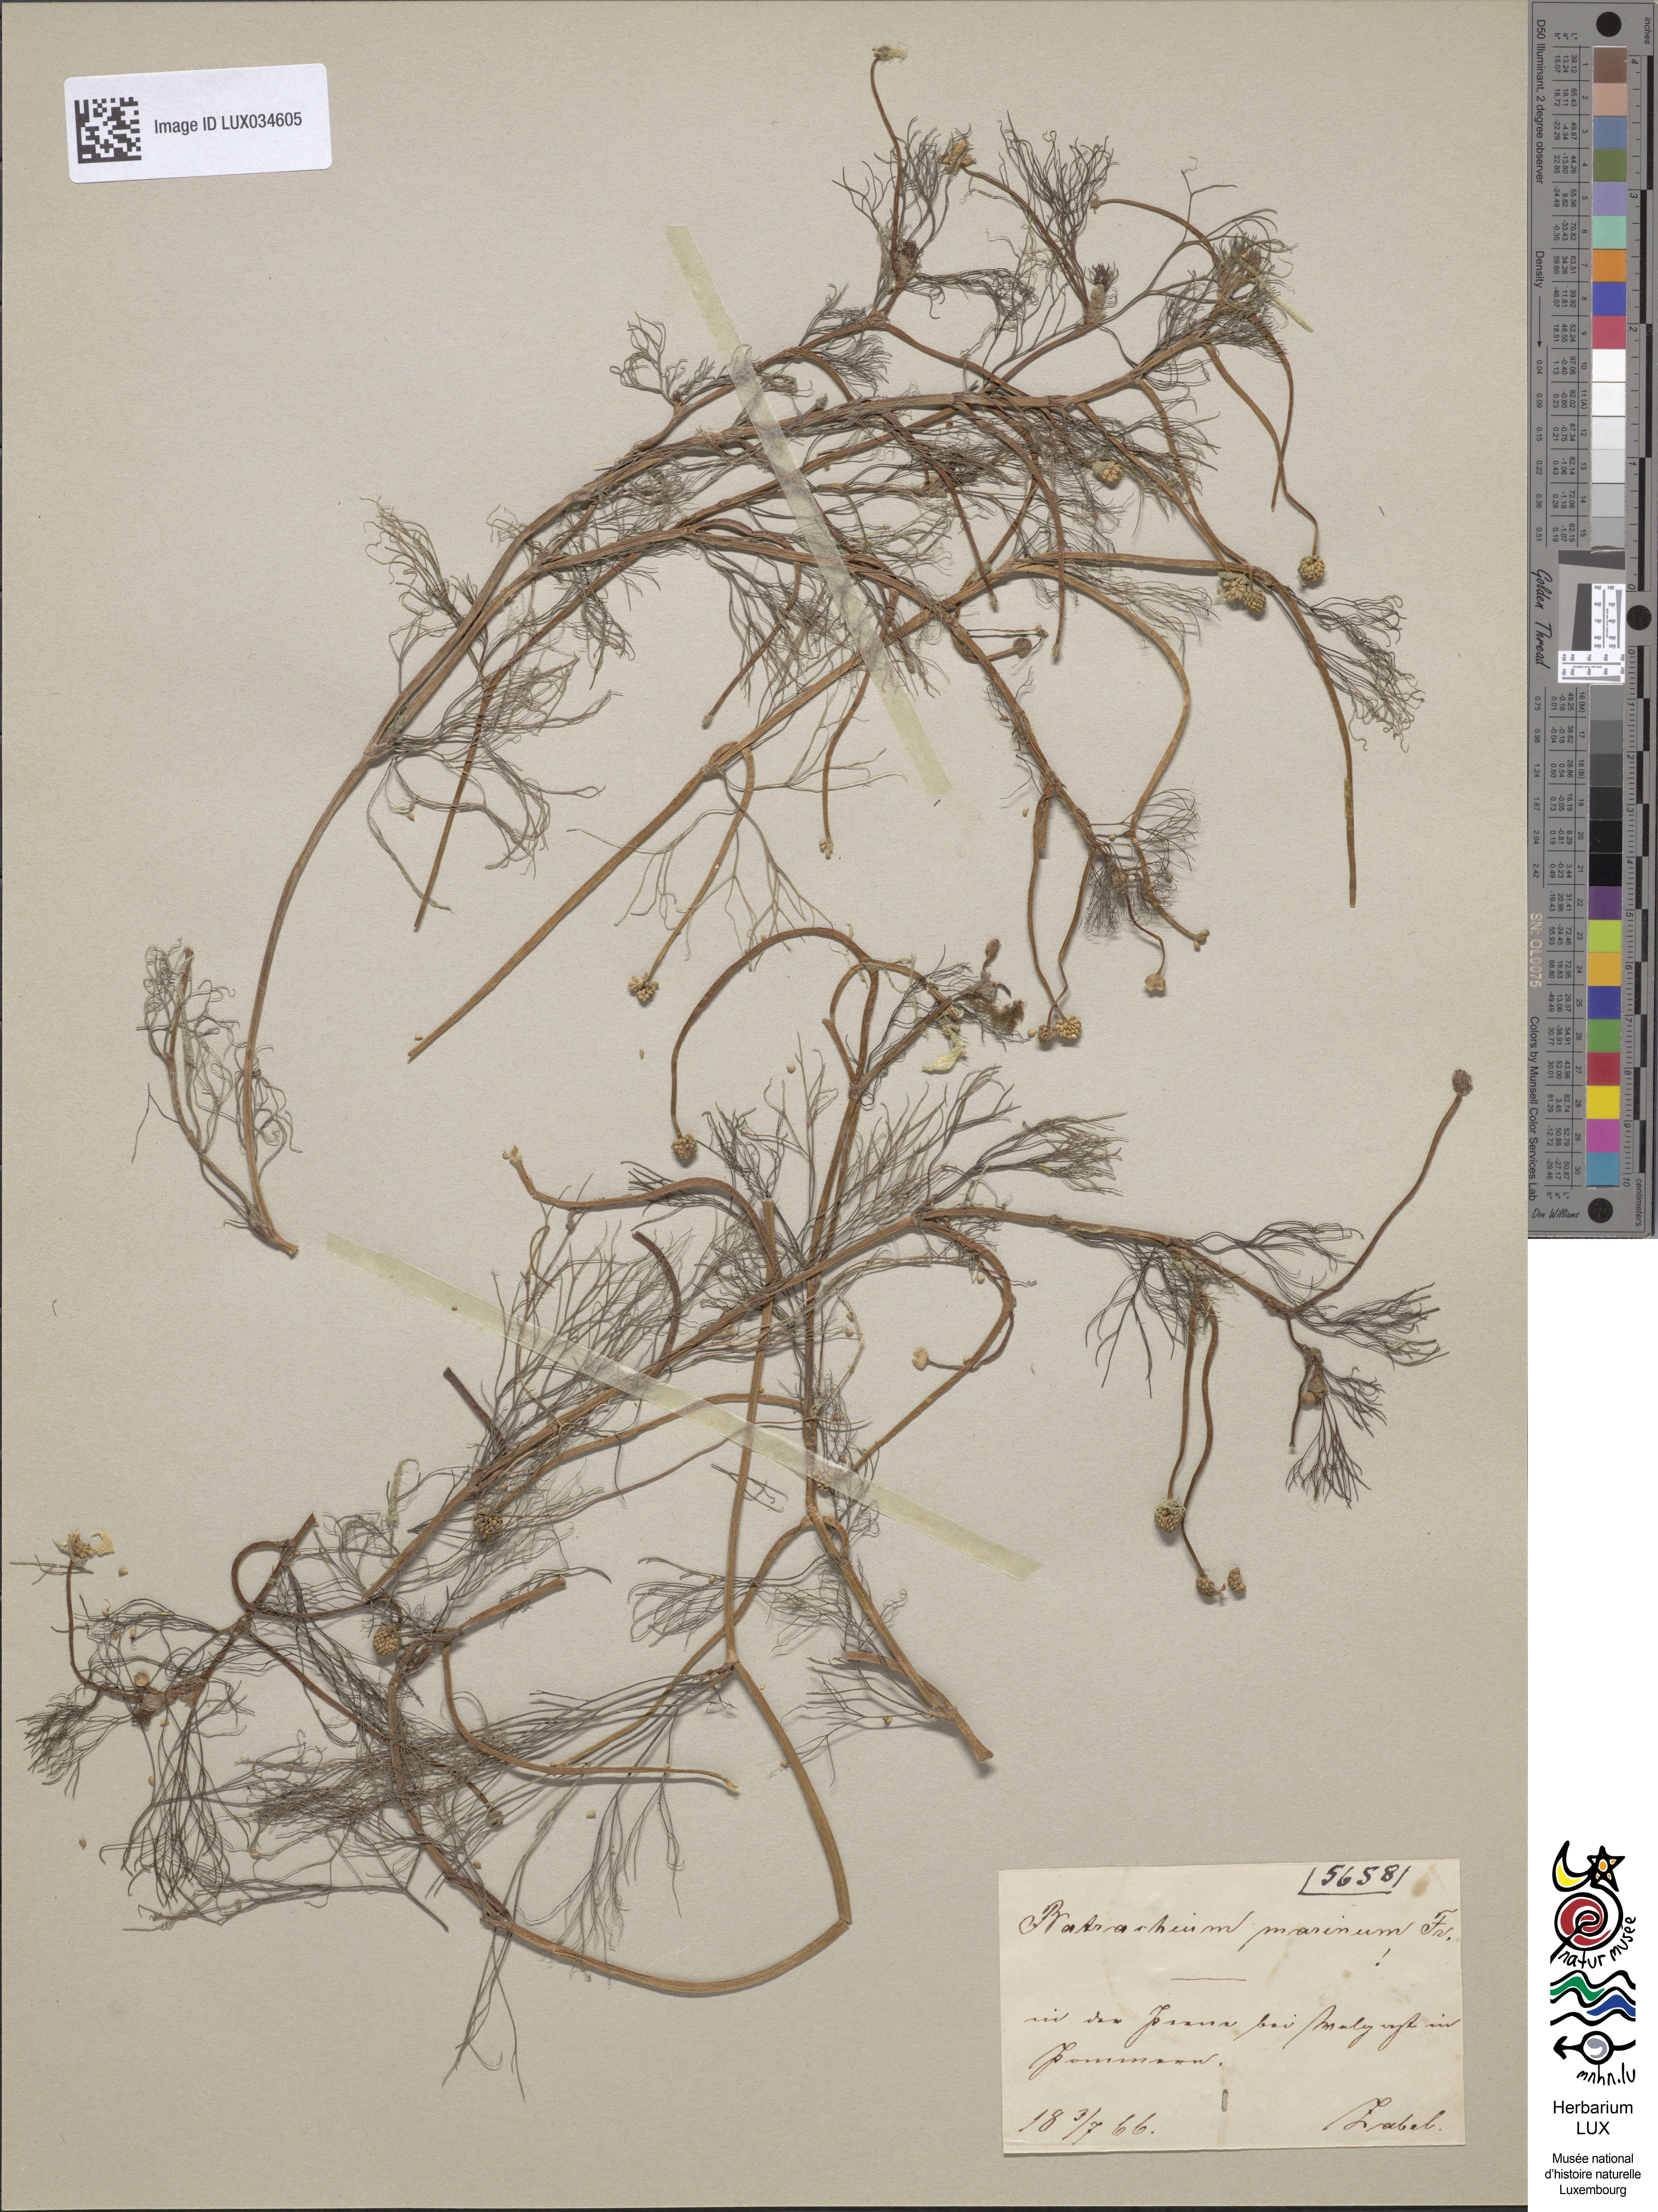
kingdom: Plantae
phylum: Tracheophyta
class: Magnoliopsida
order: Ranunculales
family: Ranunculaceae
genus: Ranunculus
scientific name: Ranunculus peltatus
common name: Pond water-crowfoot
